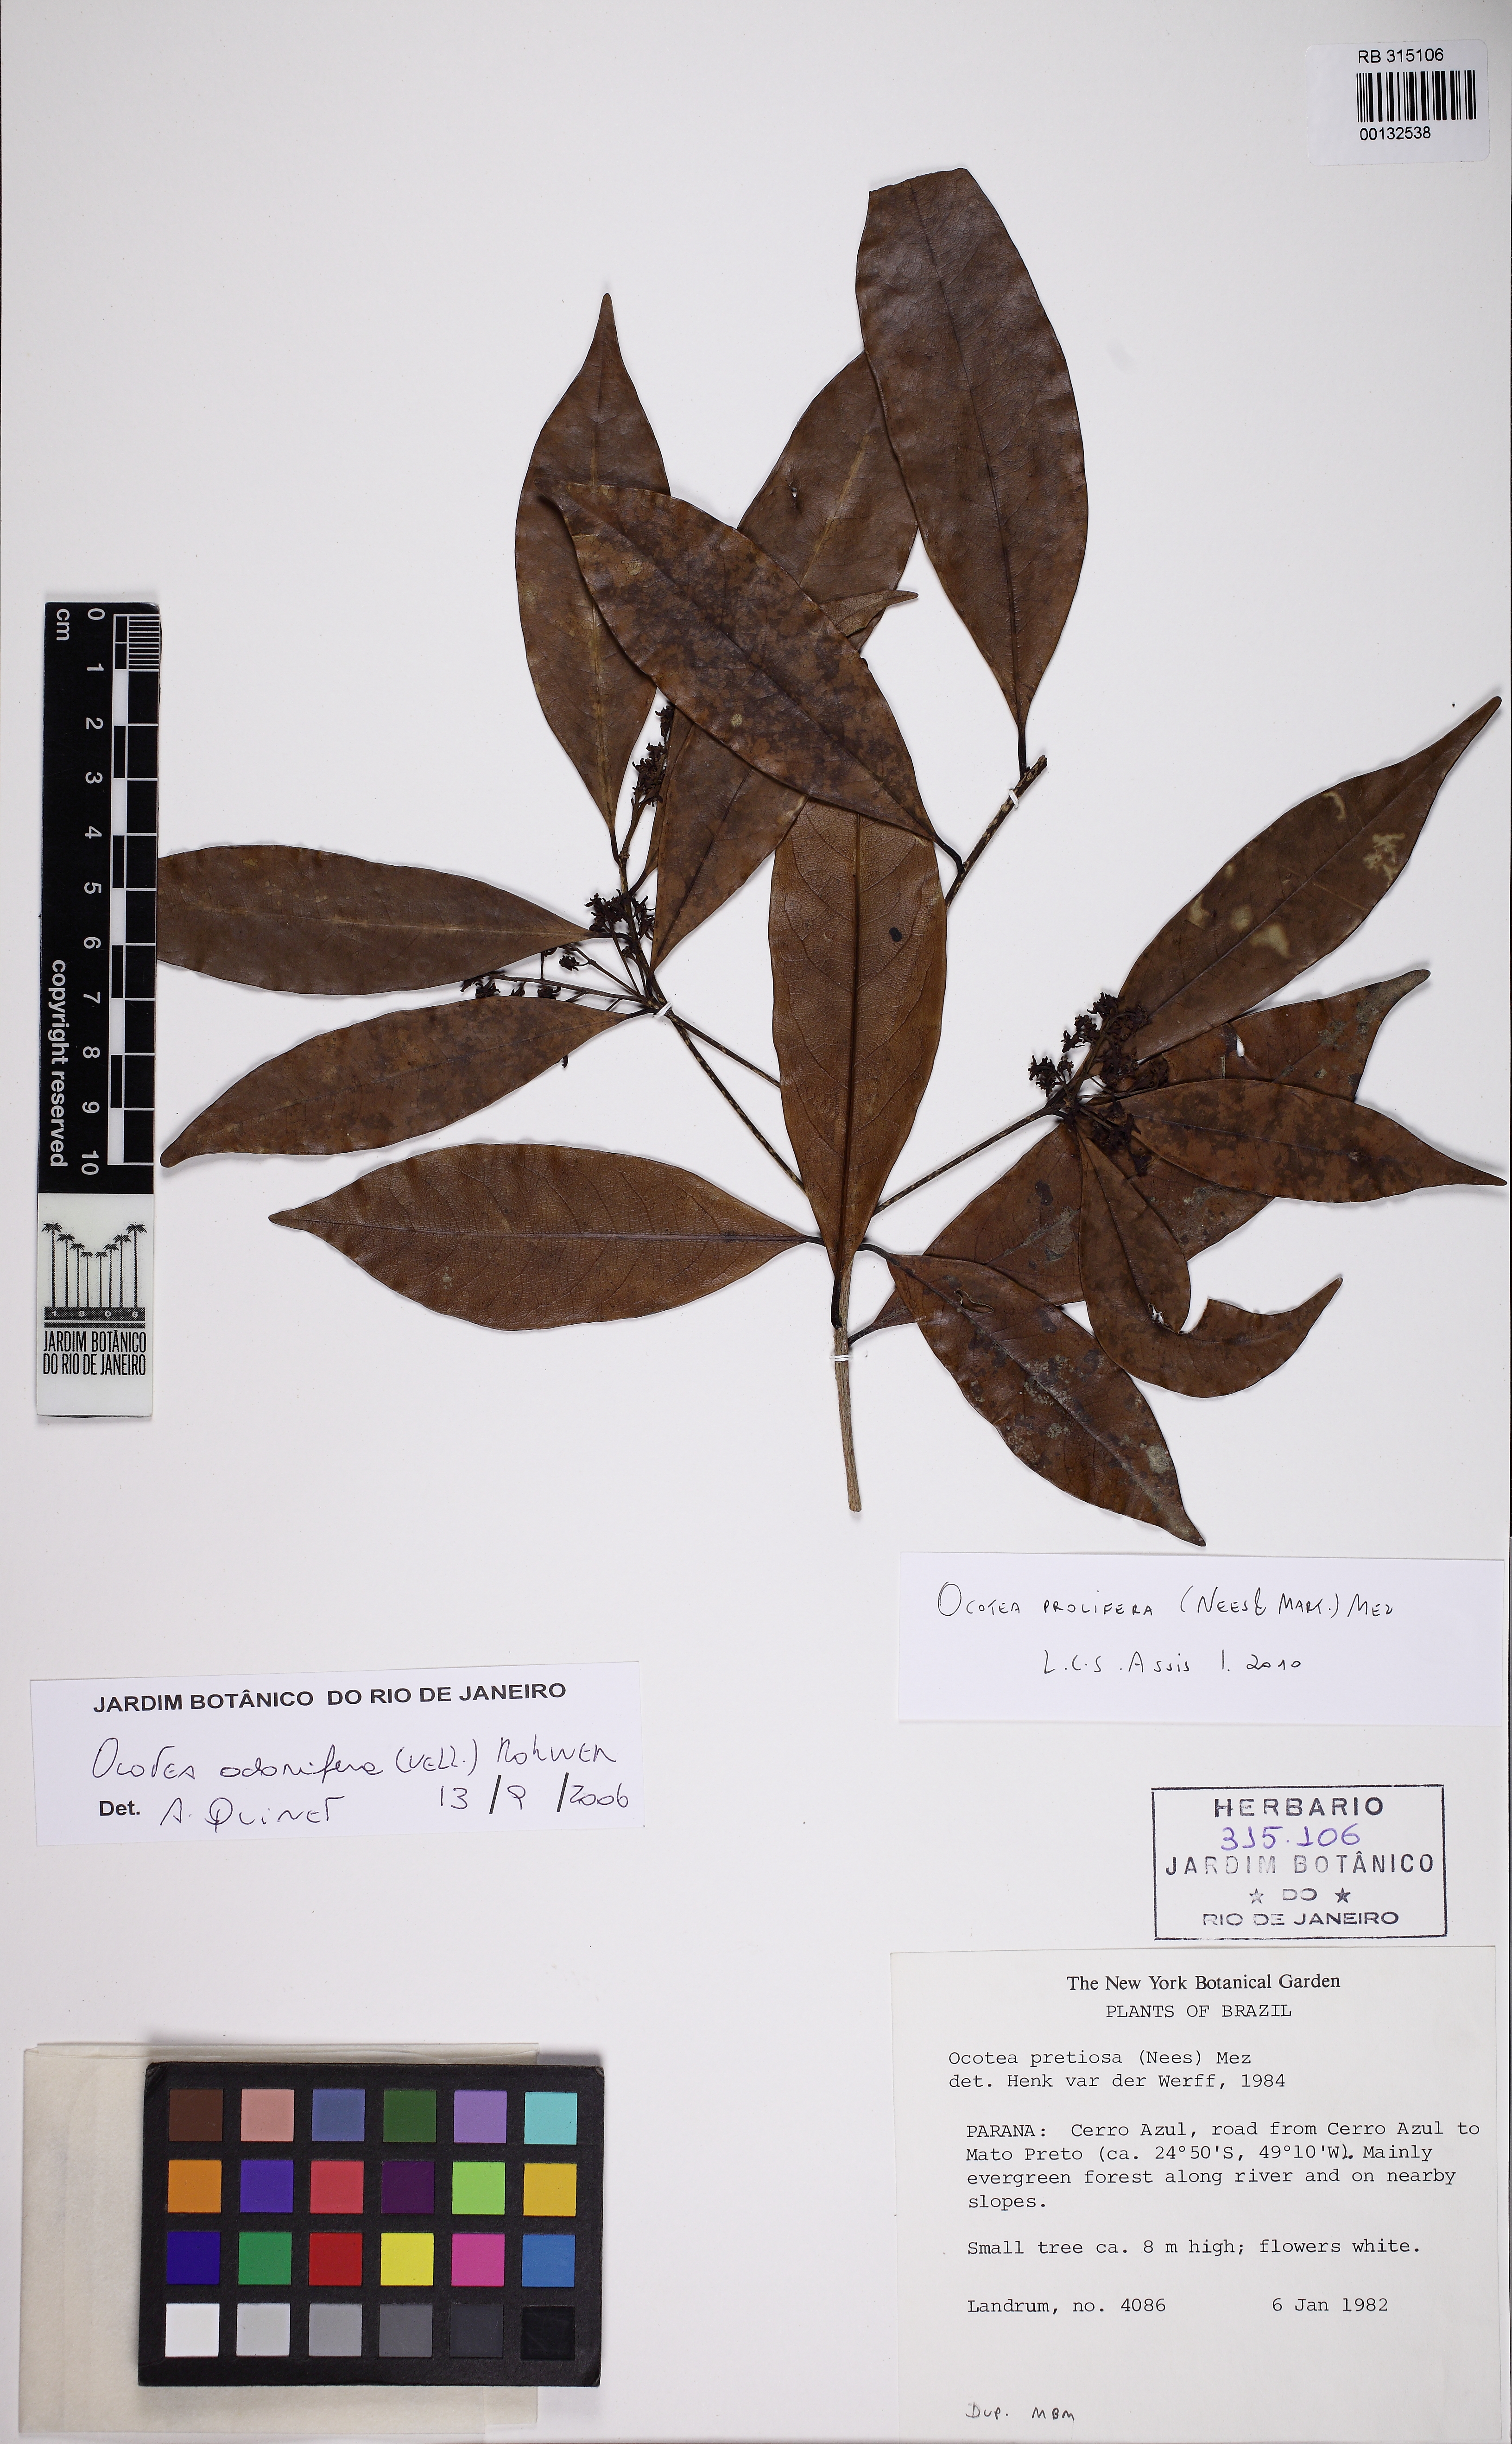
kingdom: Plantae
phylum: Tracheophyta
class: Magnoliopsida
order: Laurales
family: Lauraceae
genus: Mespilodaphne
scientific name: Mespilodaphne prolifera
